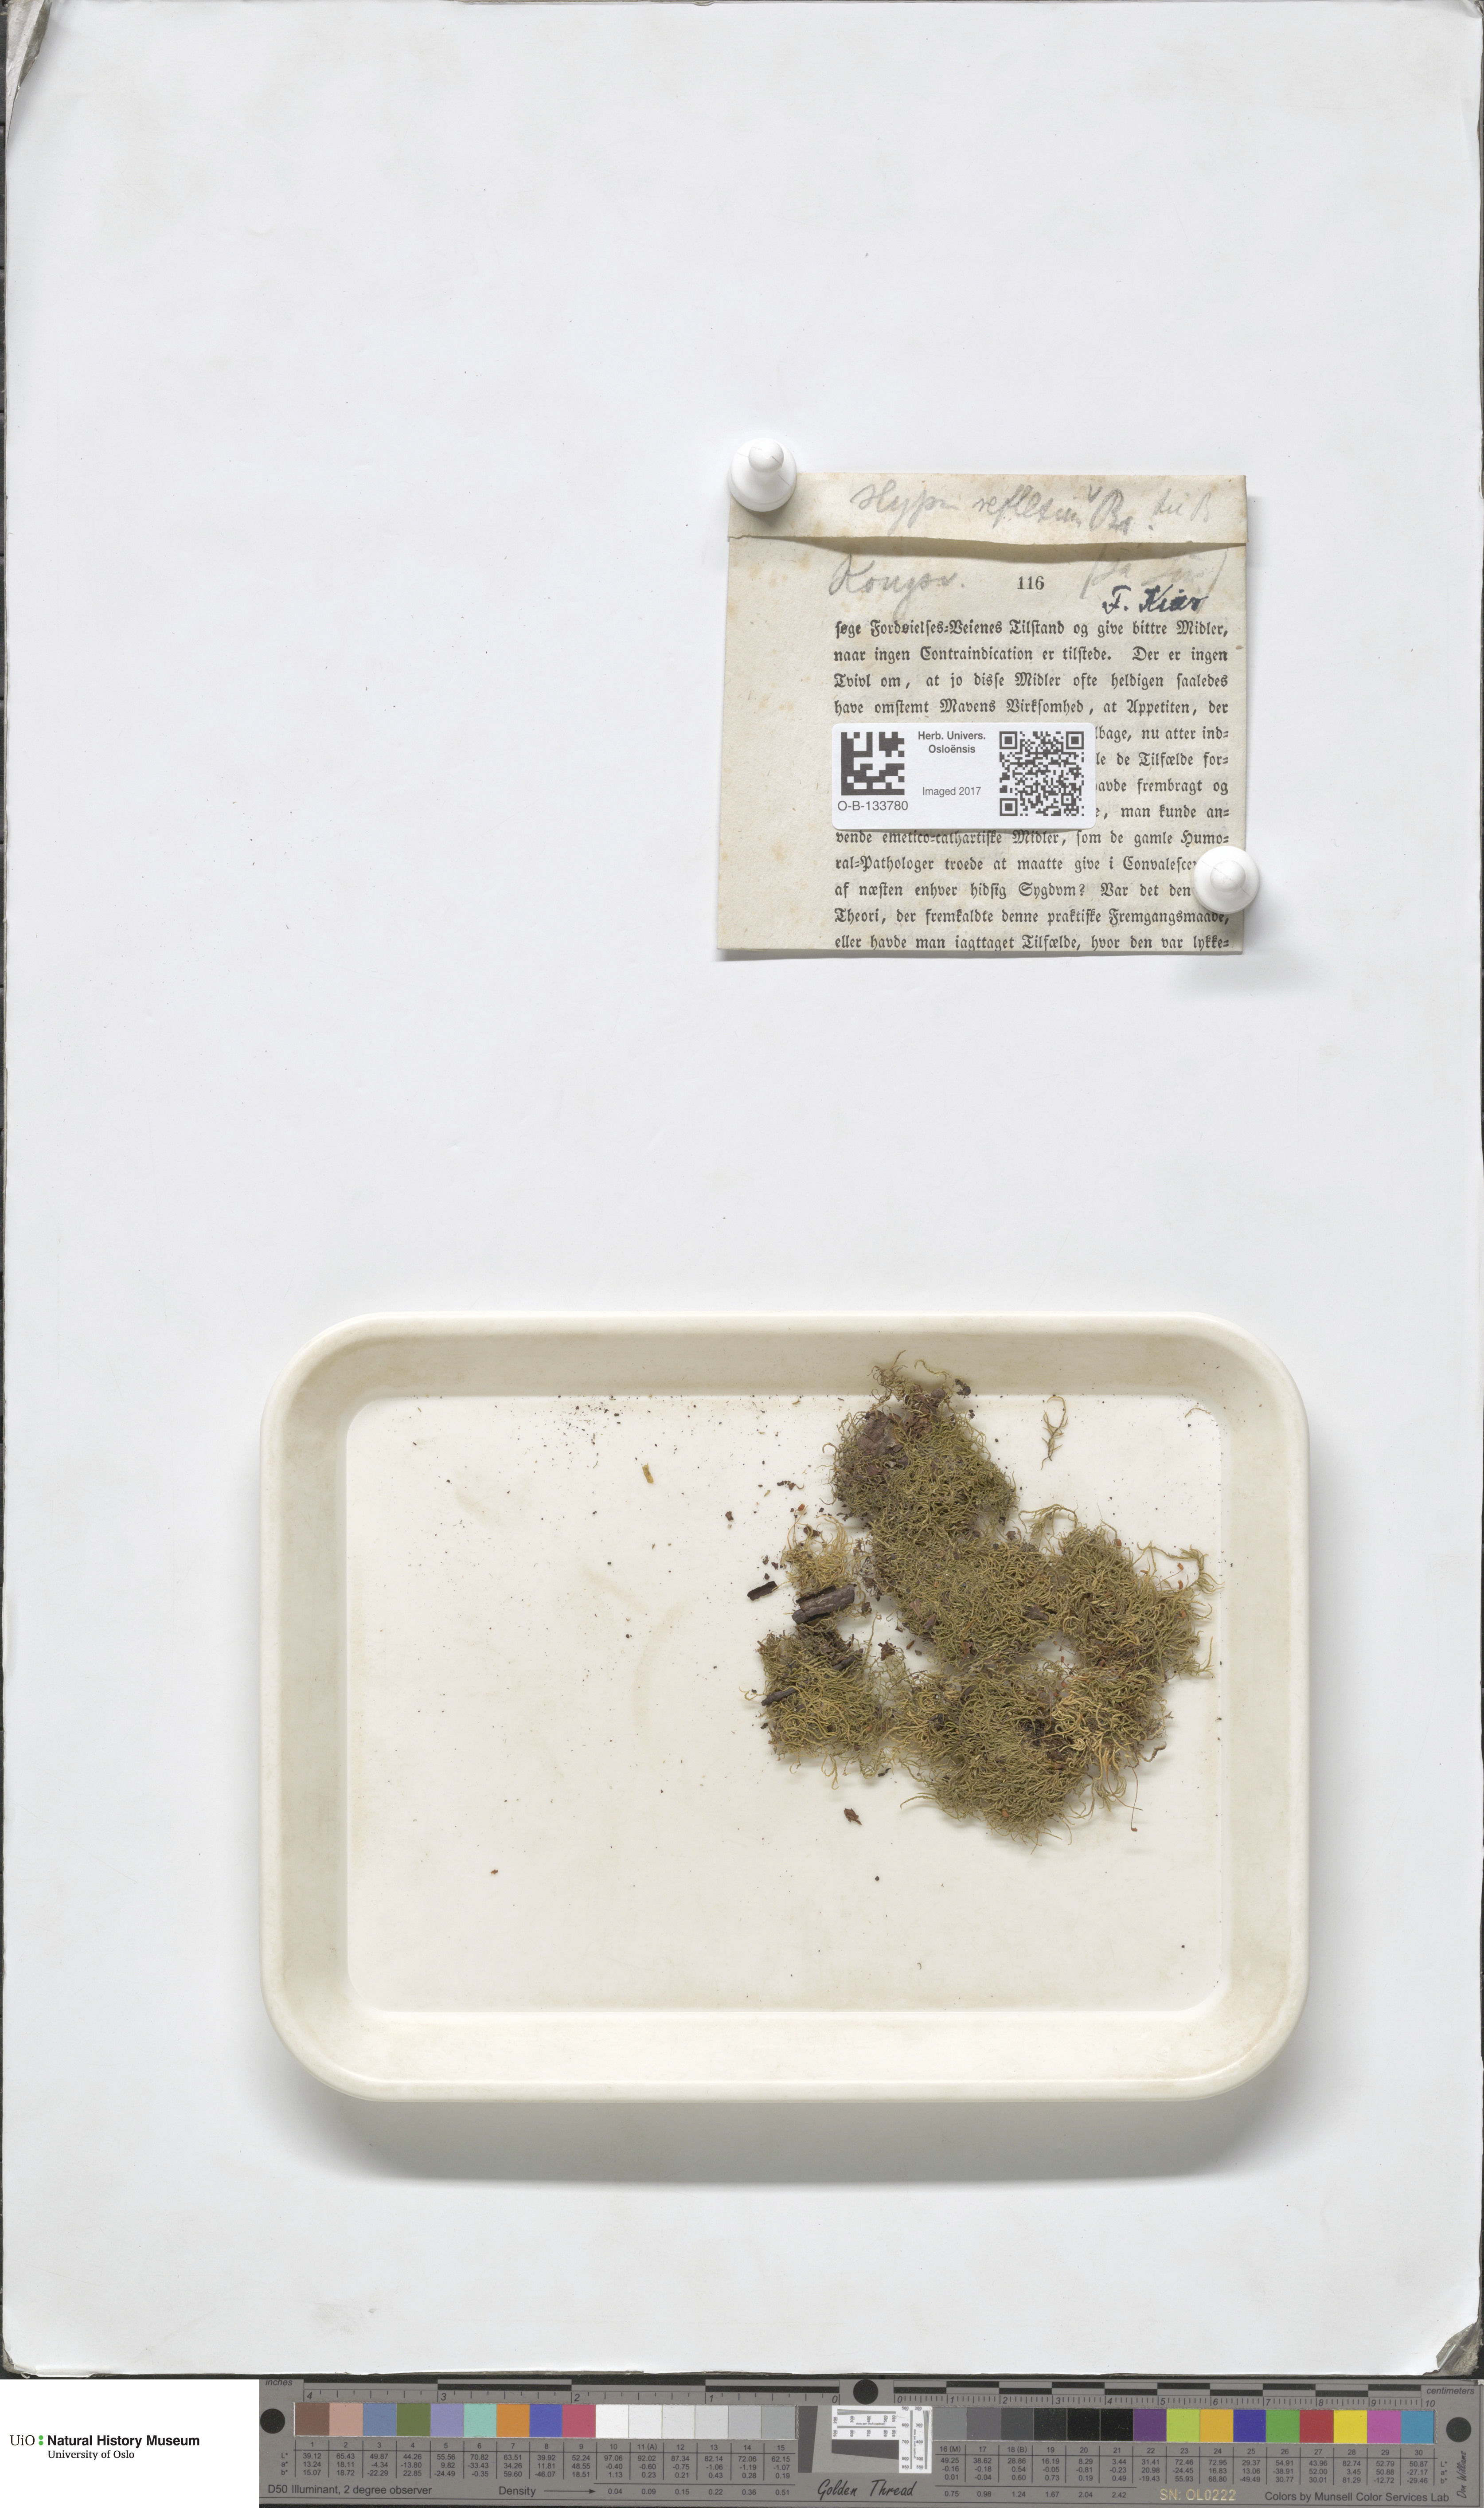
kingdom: Plantae
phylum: Bryophyta
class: Bryopsida
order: Hypnales
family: Brachytheciaceae
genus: Sciuro-hypnum
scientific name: Sciuro-hypnum reflexum
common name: Reflexed feather-moss
